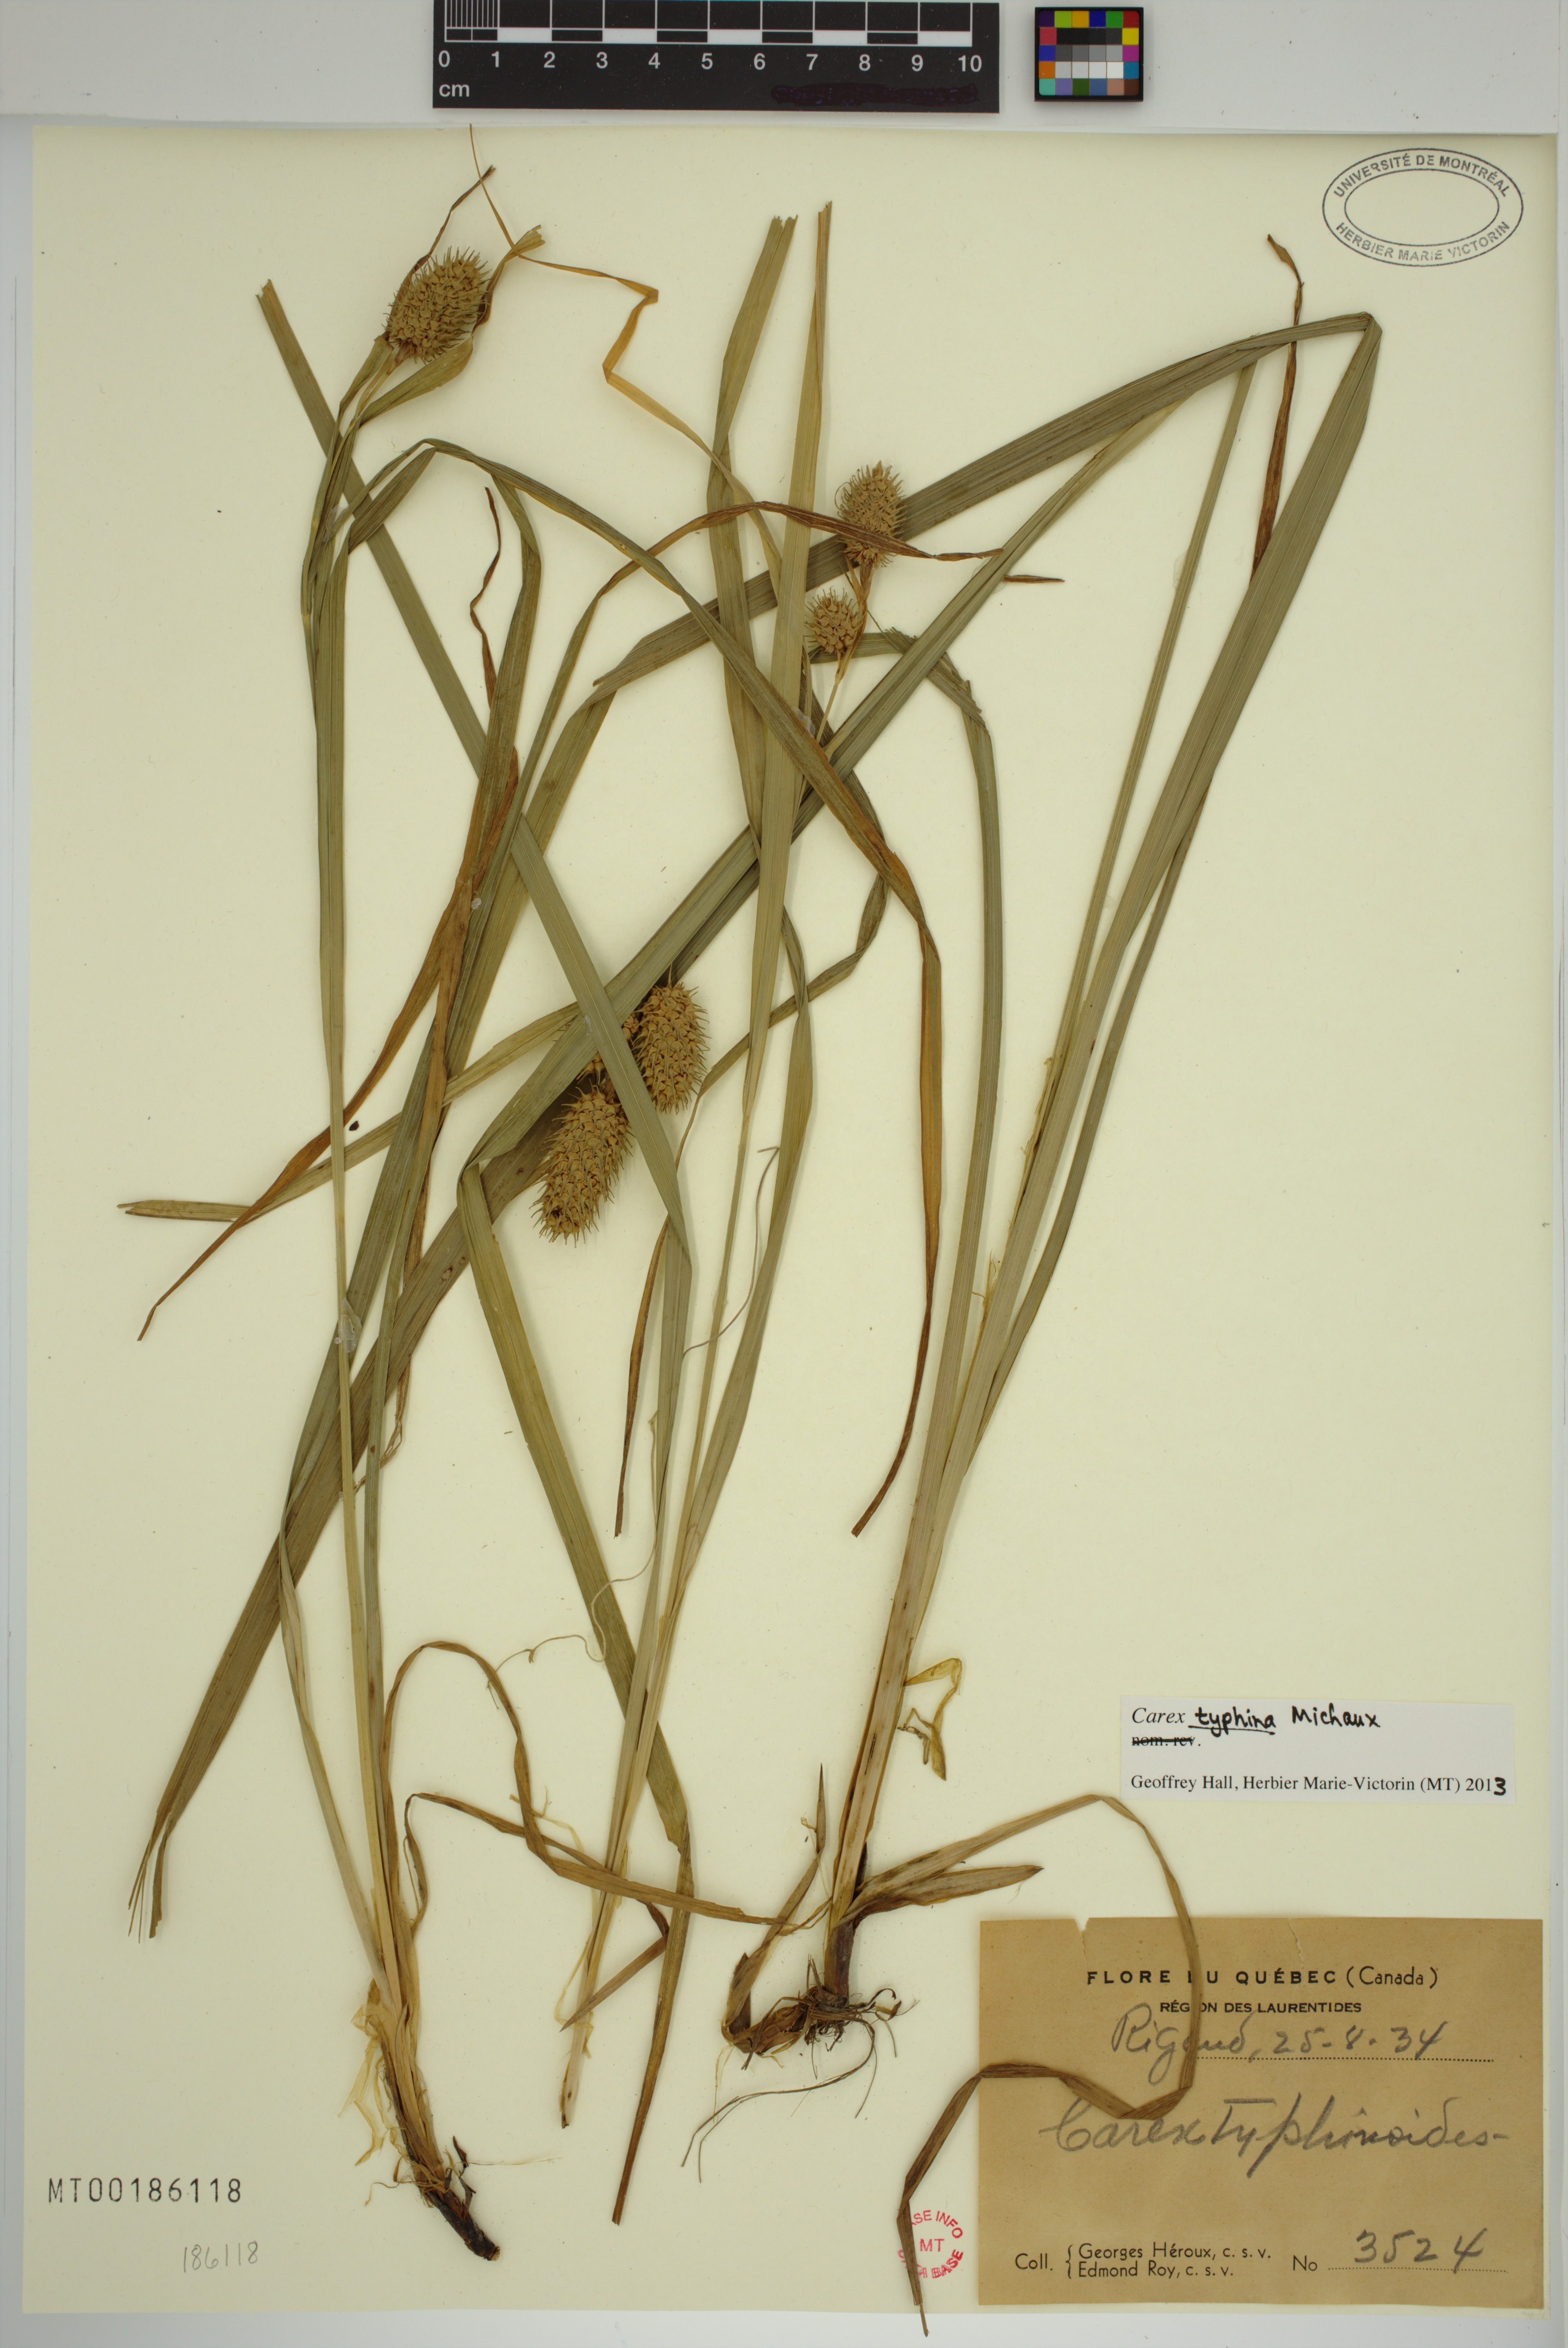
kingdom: Plantae
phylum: Tracheophyta
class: Liliopsida
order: Poales
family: Cyperaceae
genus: Carex
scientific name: Carex typhina
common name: Cattail sedge
